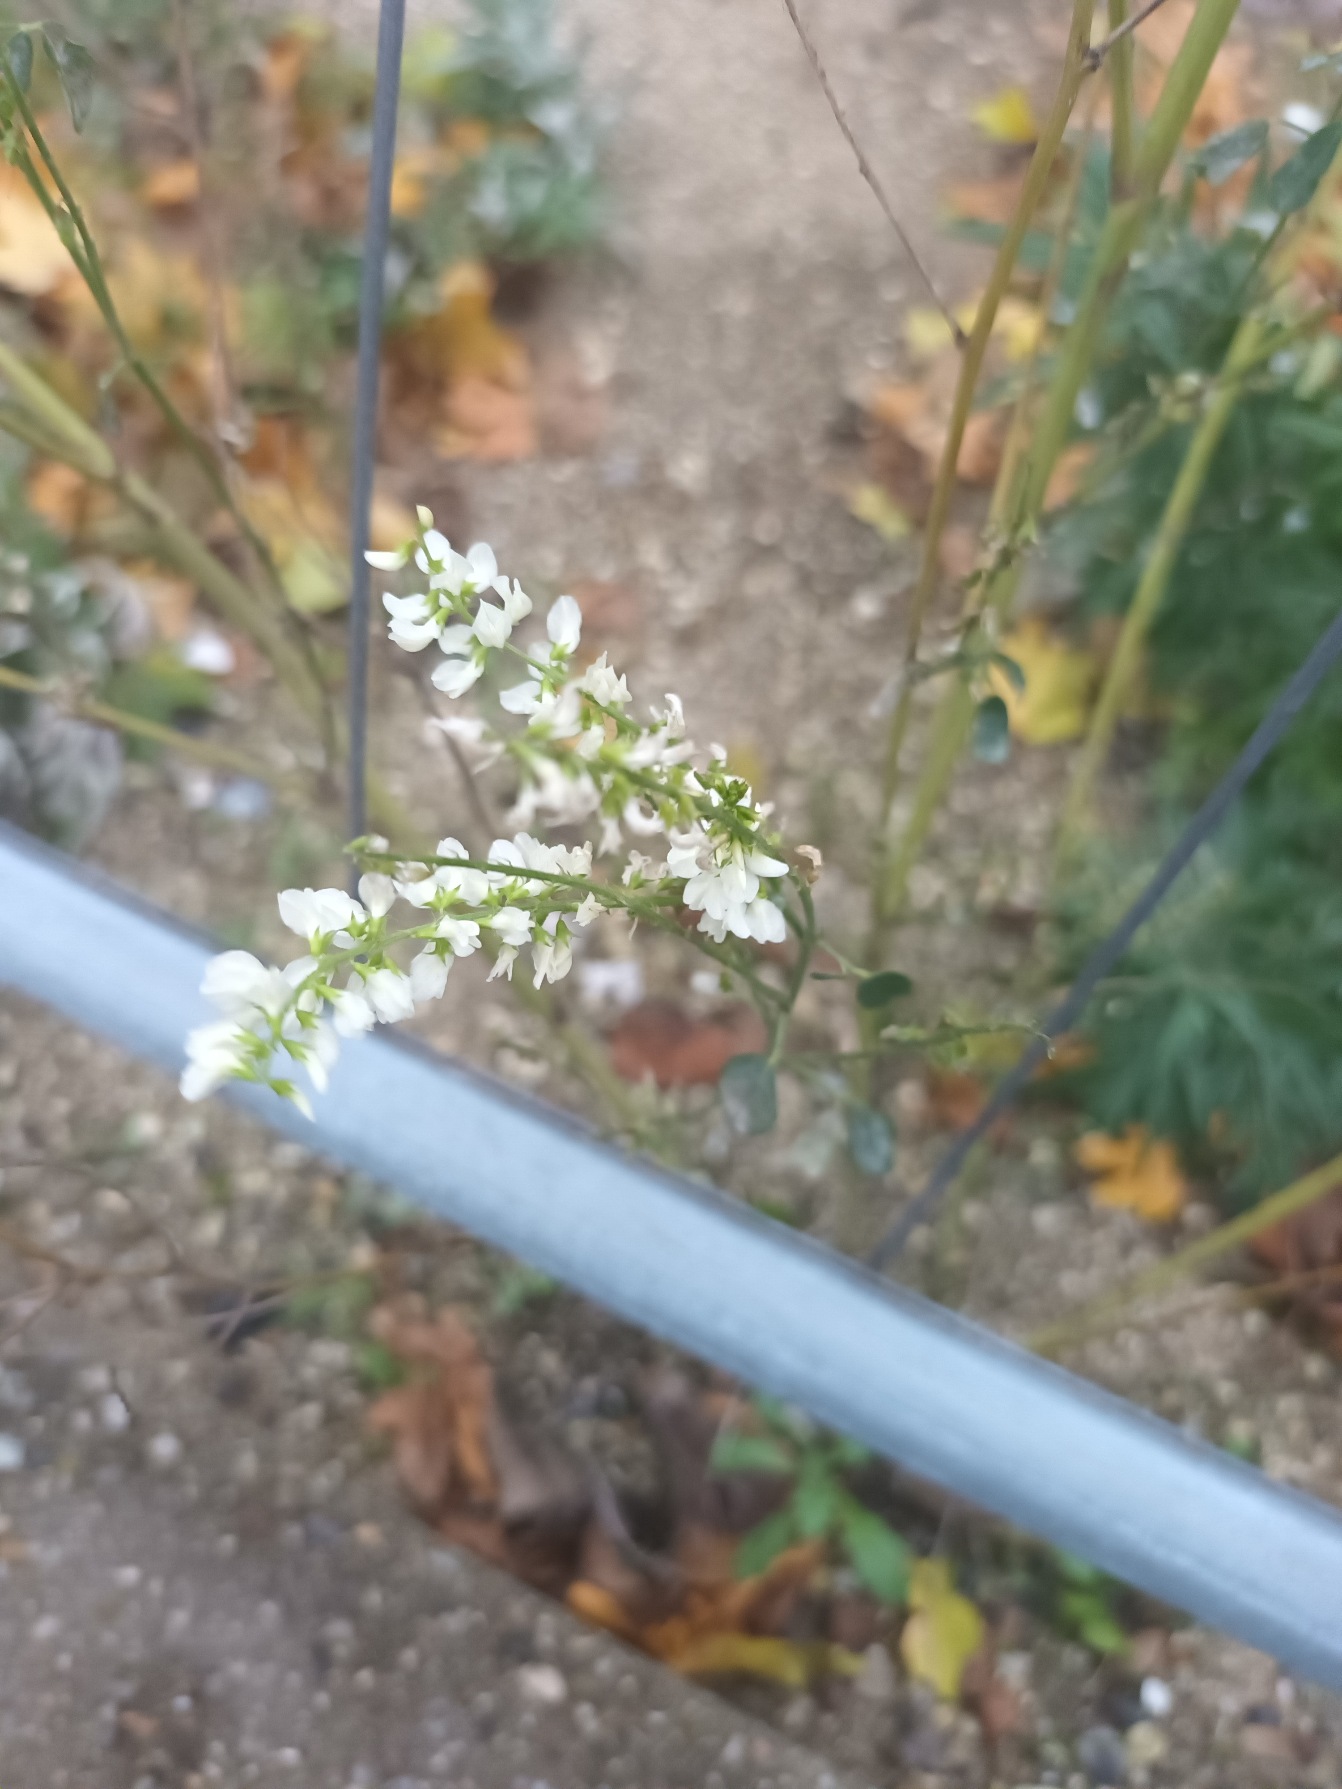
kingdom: Plantae
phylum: Tracheophyta
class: Magnoliopsida
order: Fabales
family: Fabaceae
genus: Melilotus
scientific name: Melilotus albus
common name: Hvid stenkløver
